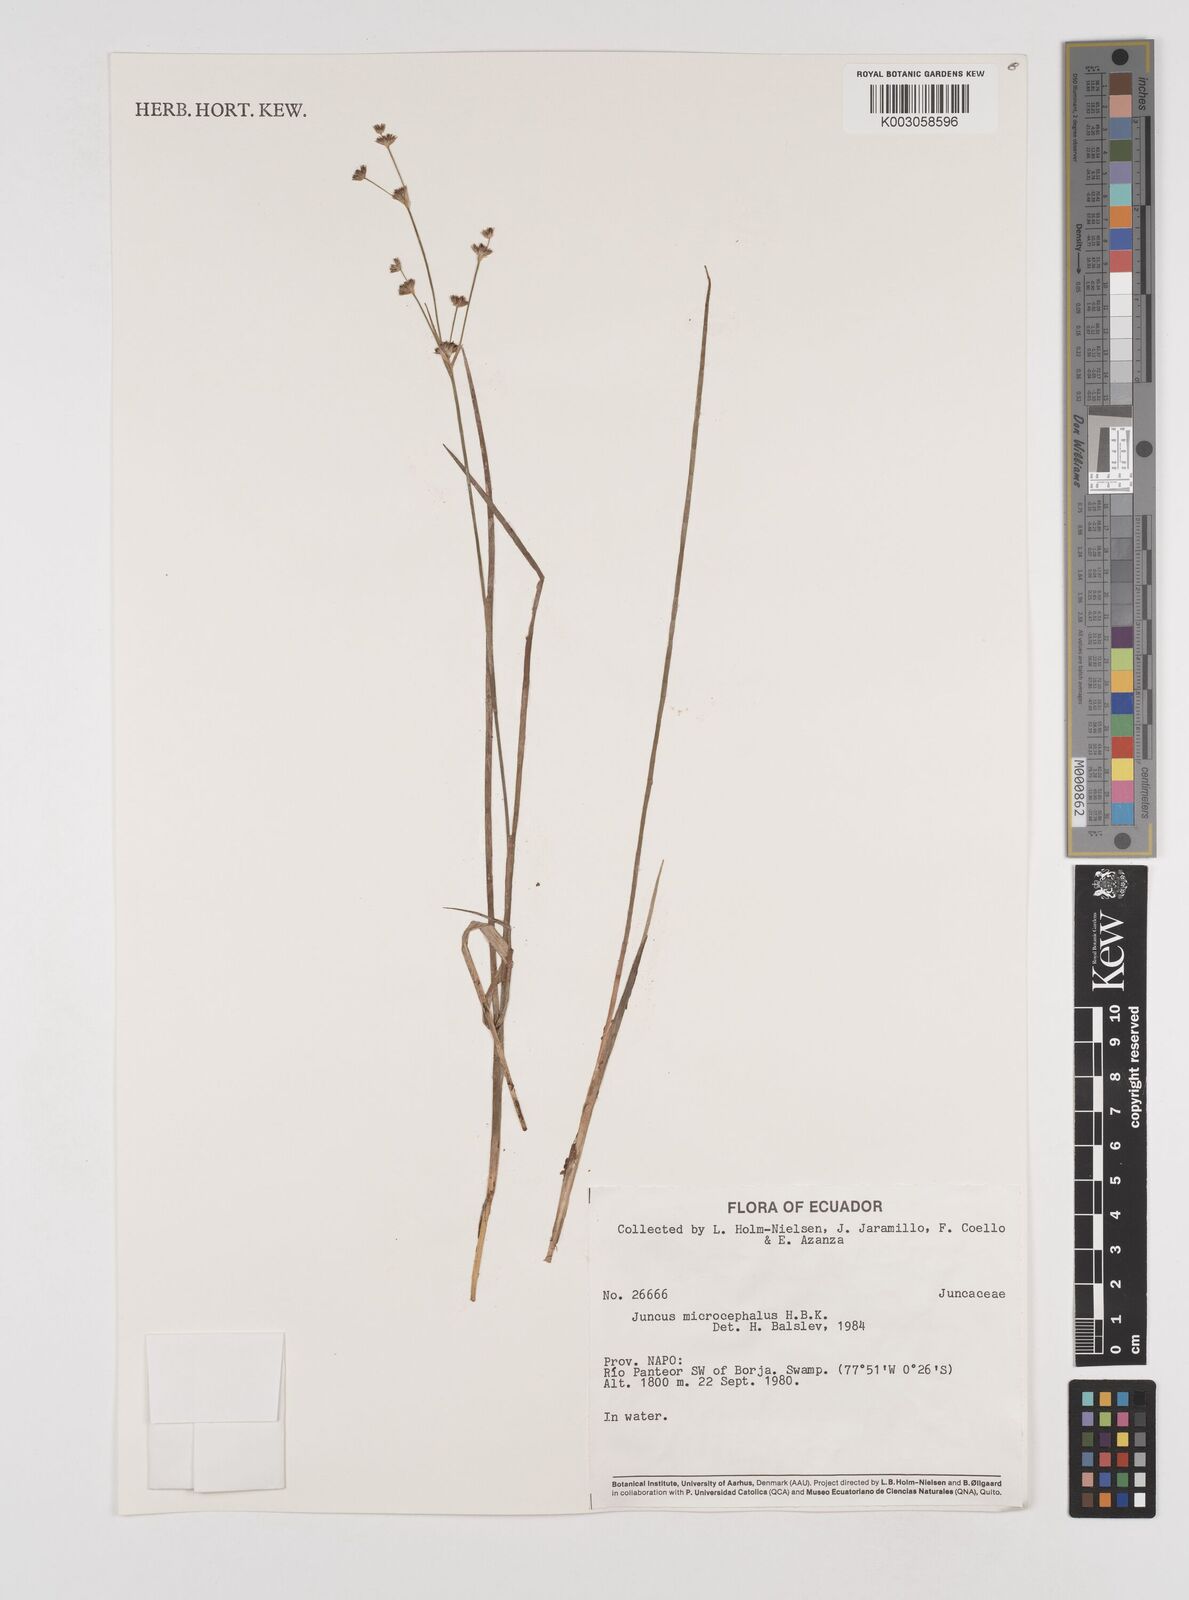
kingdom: Plantae
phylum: Tracheophyta
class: Liliopsida
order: Poales
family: Juncaceae
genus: Juncus
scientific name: Juncus
